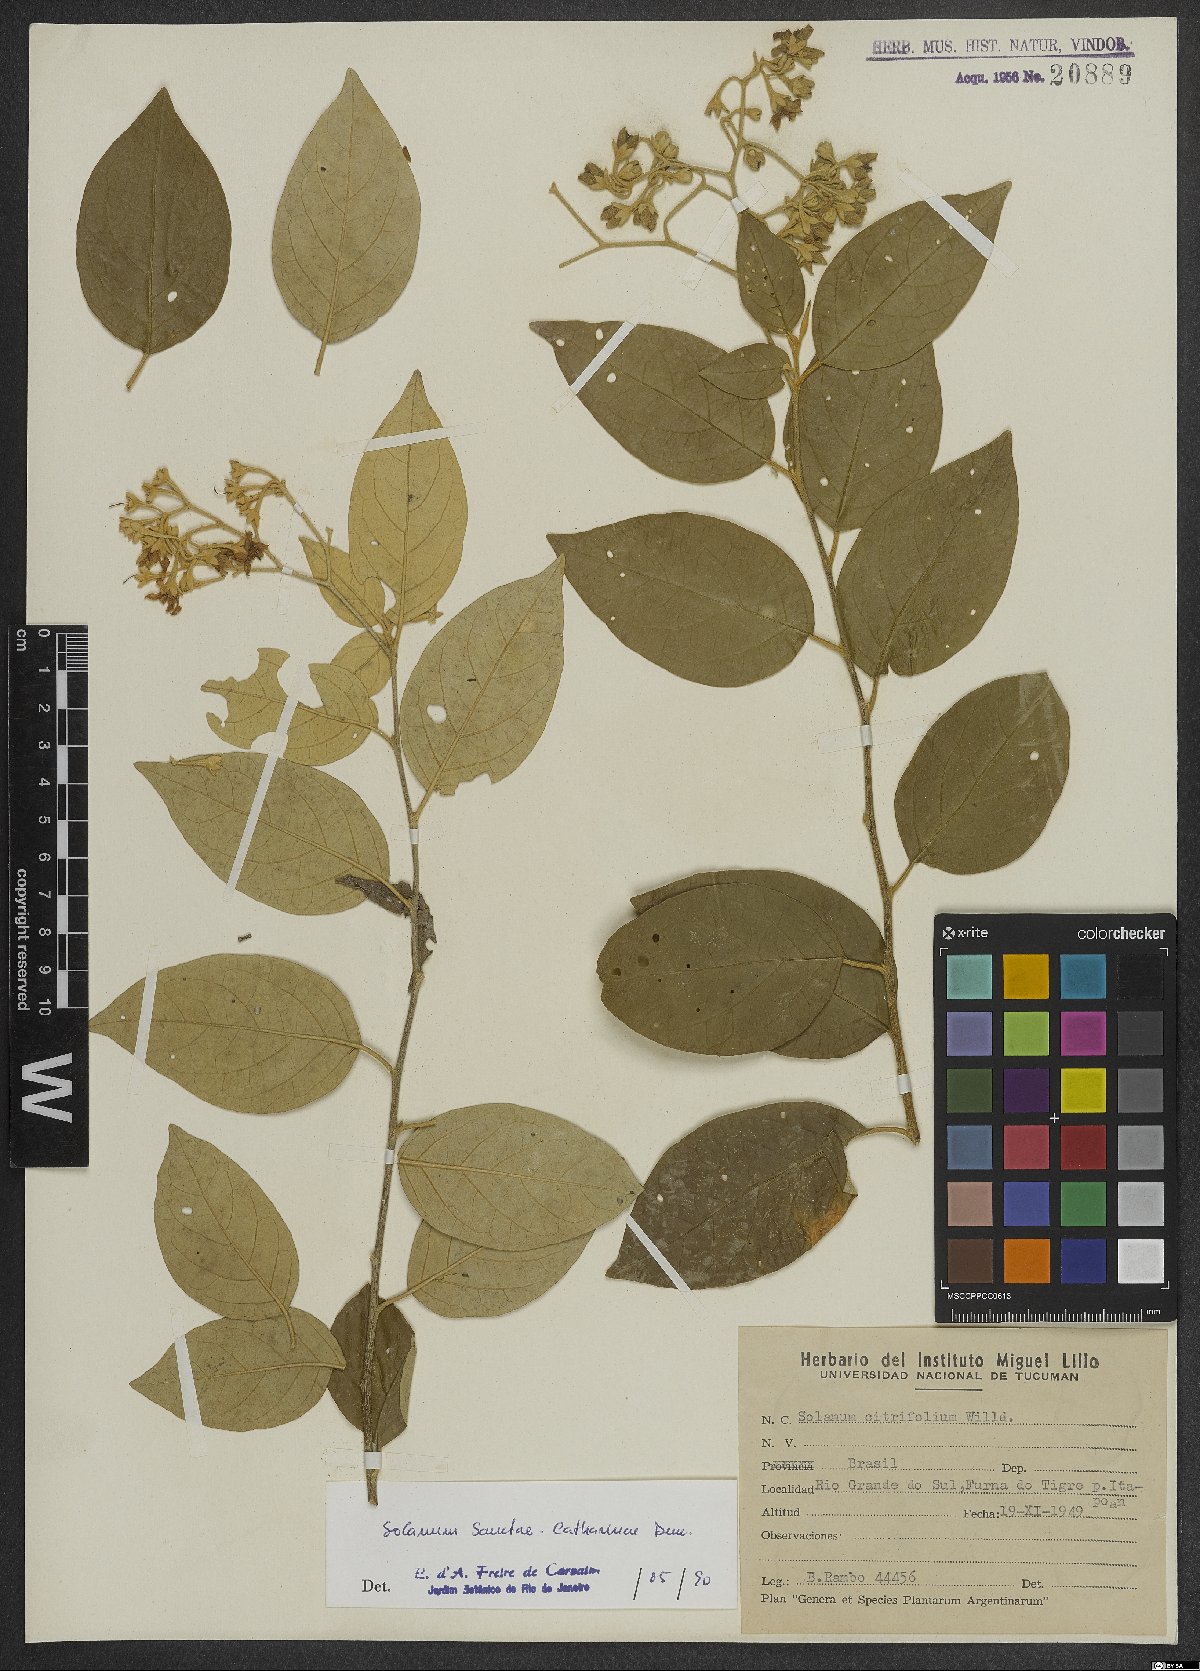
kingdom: Plantae
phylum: Tracheophyta
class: Magnoliopsida
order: Solanales
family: Solanaceae
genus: Solanum
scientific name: Solanum sanctae-catharinae
